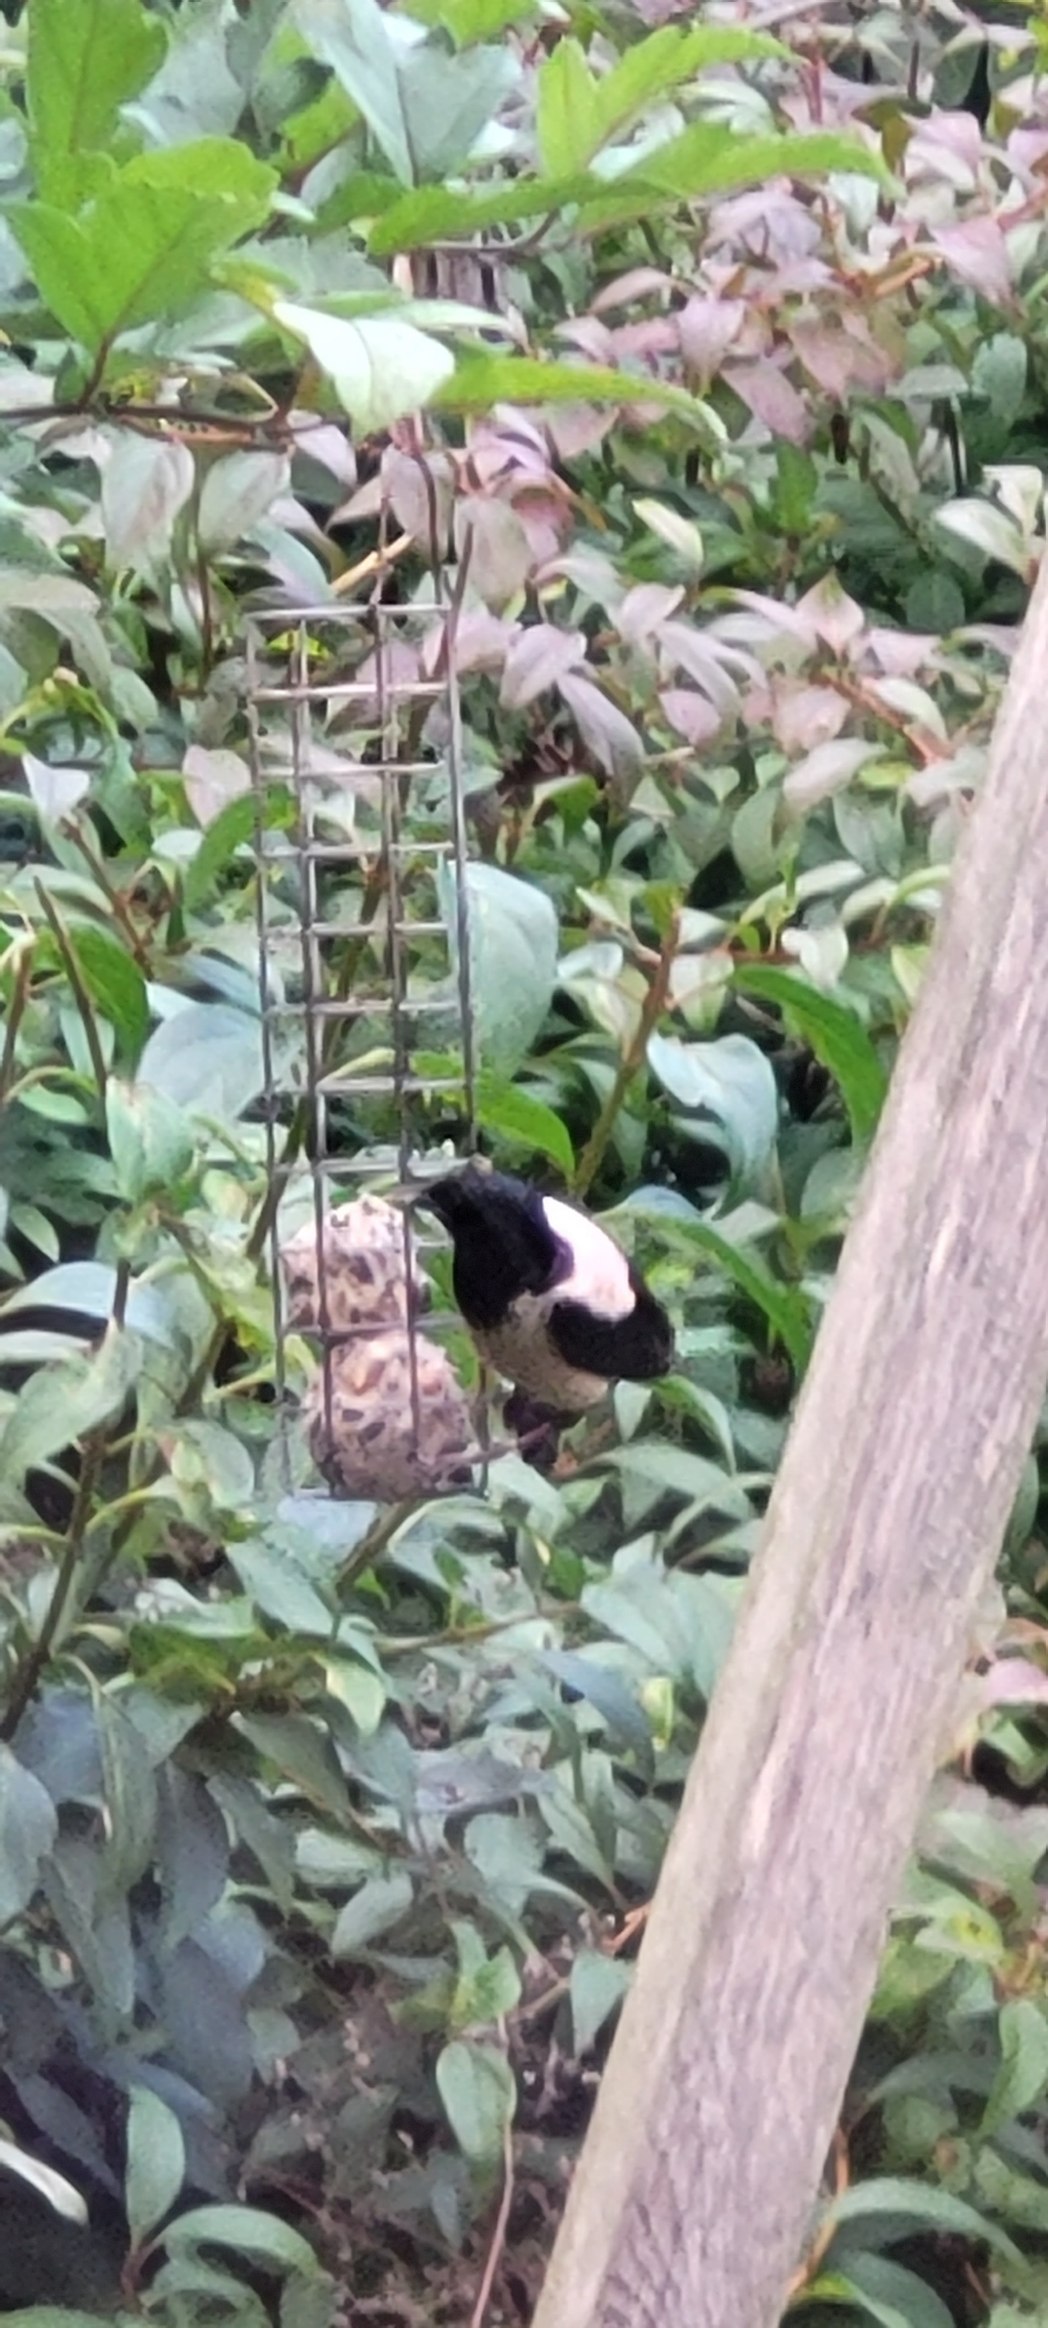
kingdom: Animalia
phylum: Chordata
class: Aves
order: Passeriformes
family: Sturnidae
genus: Pastor
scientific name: Pastor roseus
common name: Rosenstær
